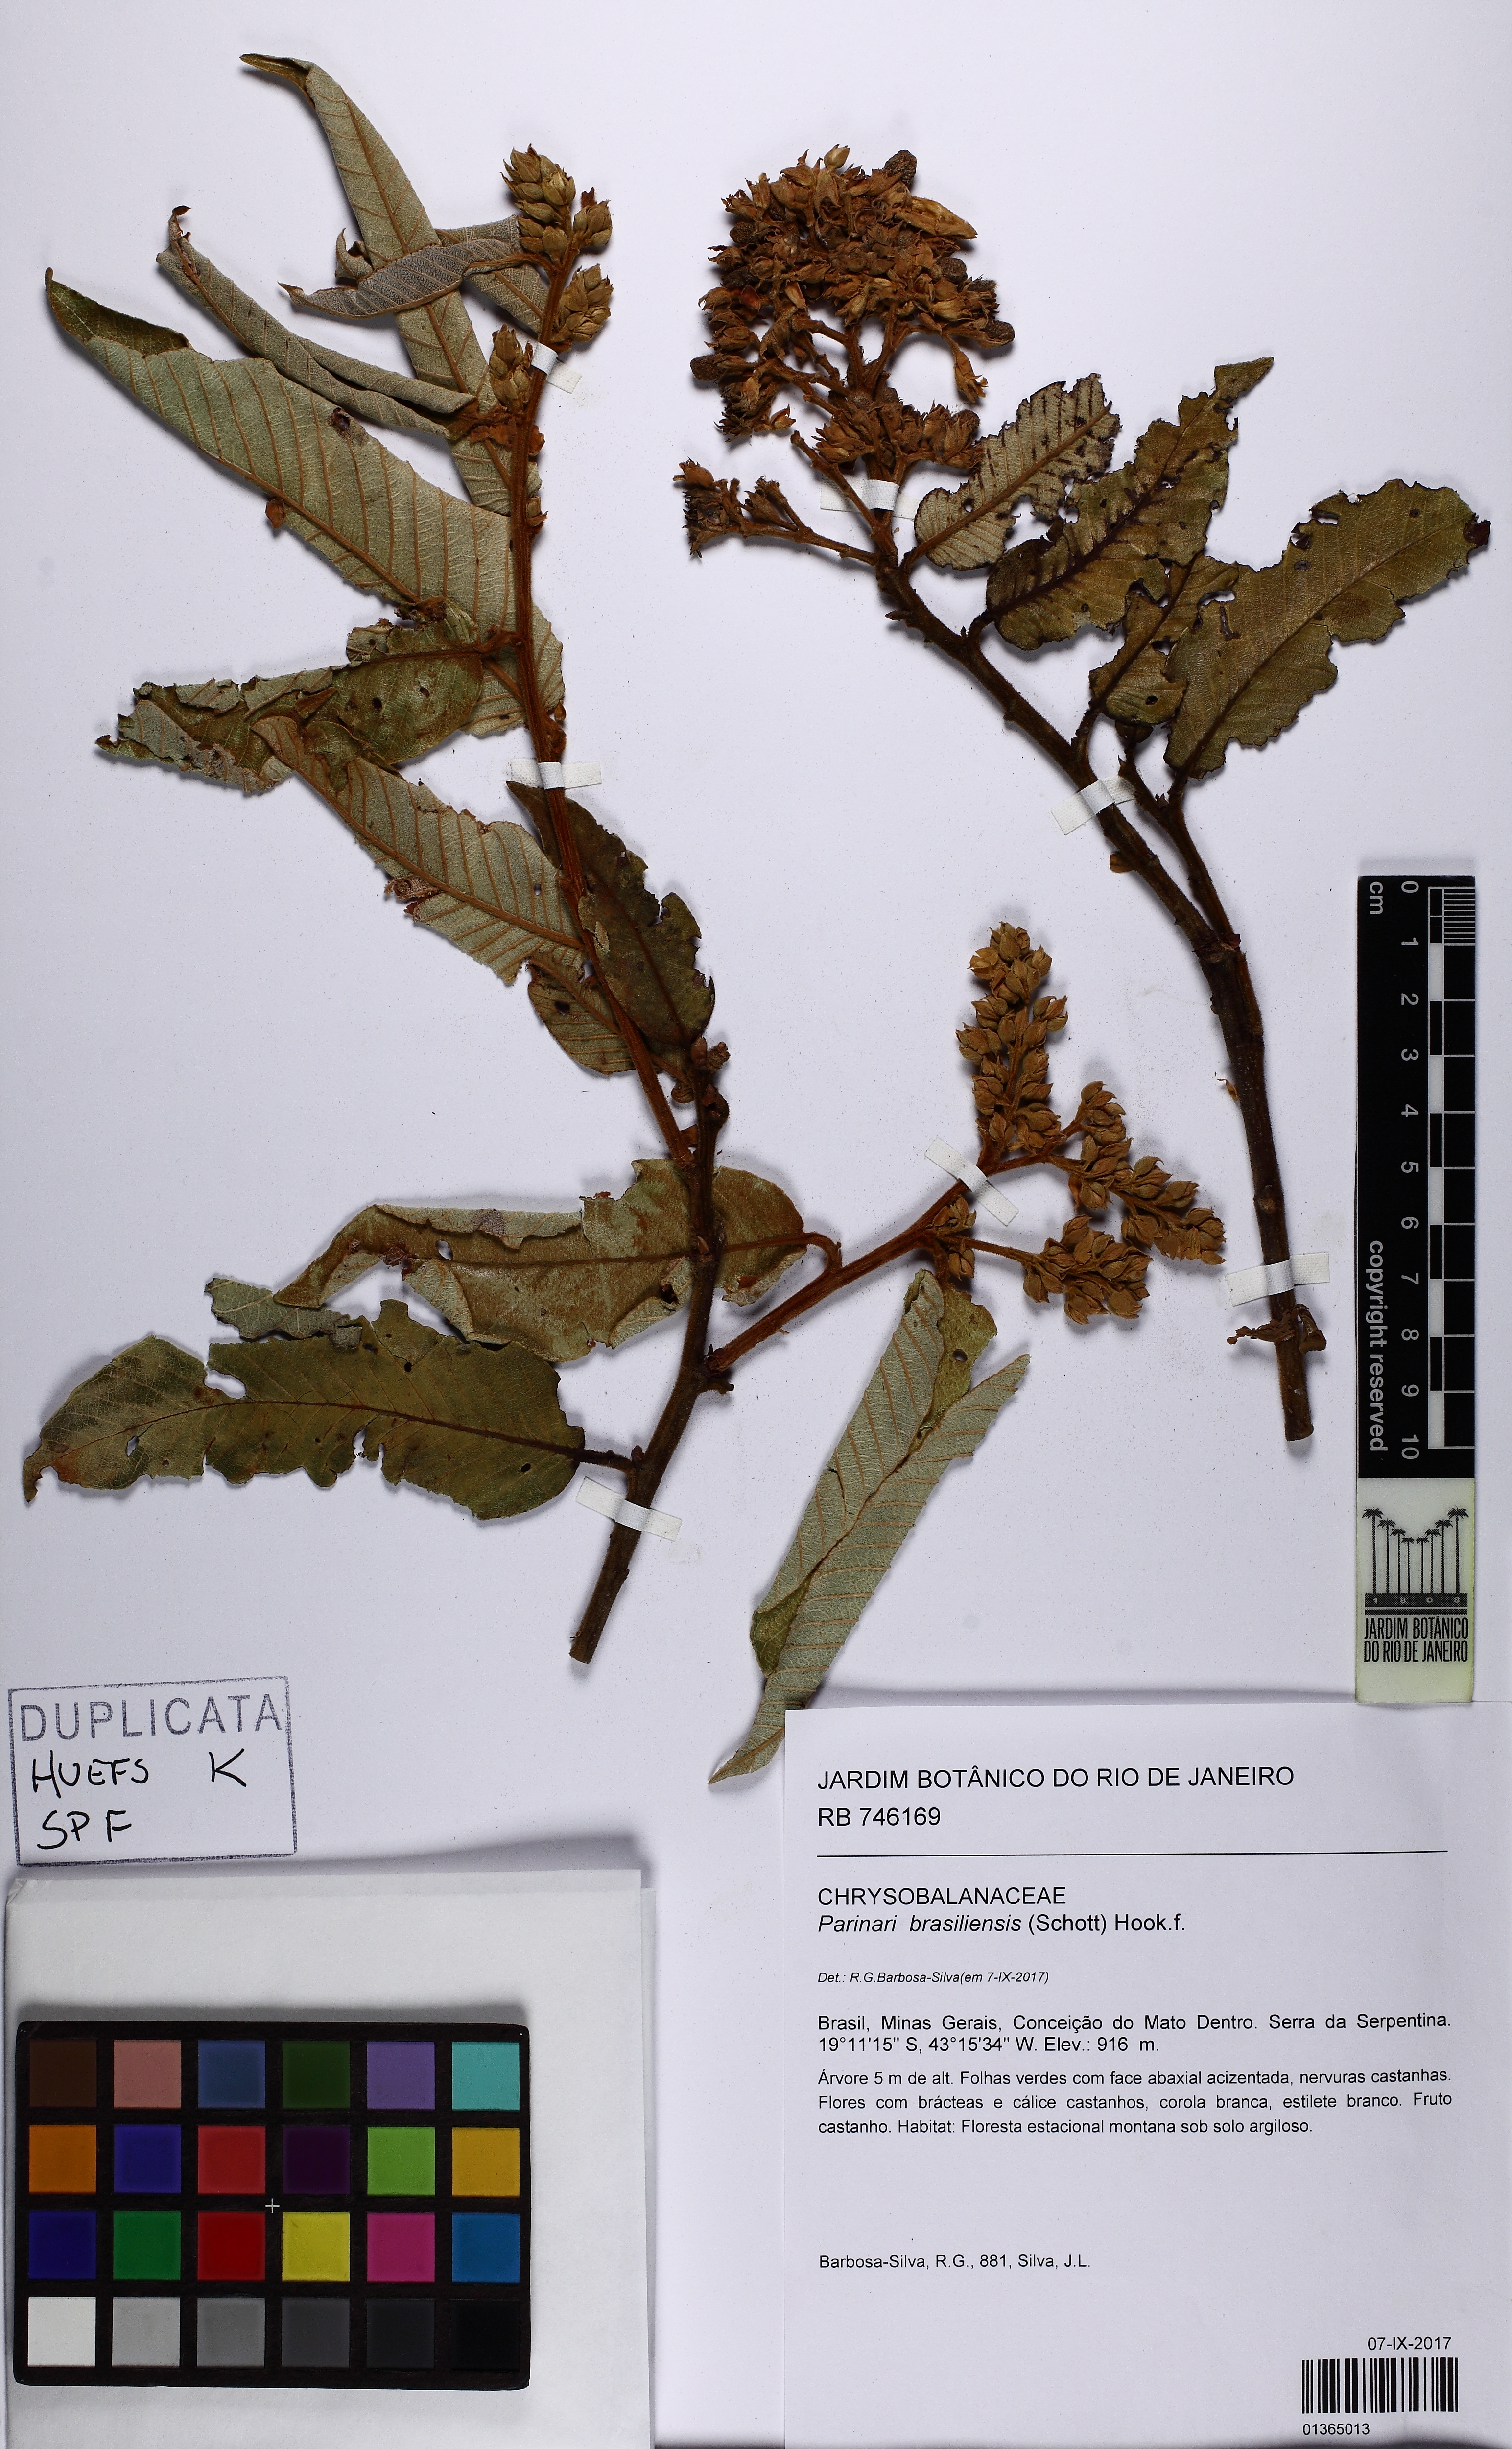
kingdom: Plantae
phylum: Tracheophyta
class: Magnoliopsida
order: Malpighiales
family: Chrysobalanaceae
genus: Parinari
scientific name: Parinari brasiliensis
